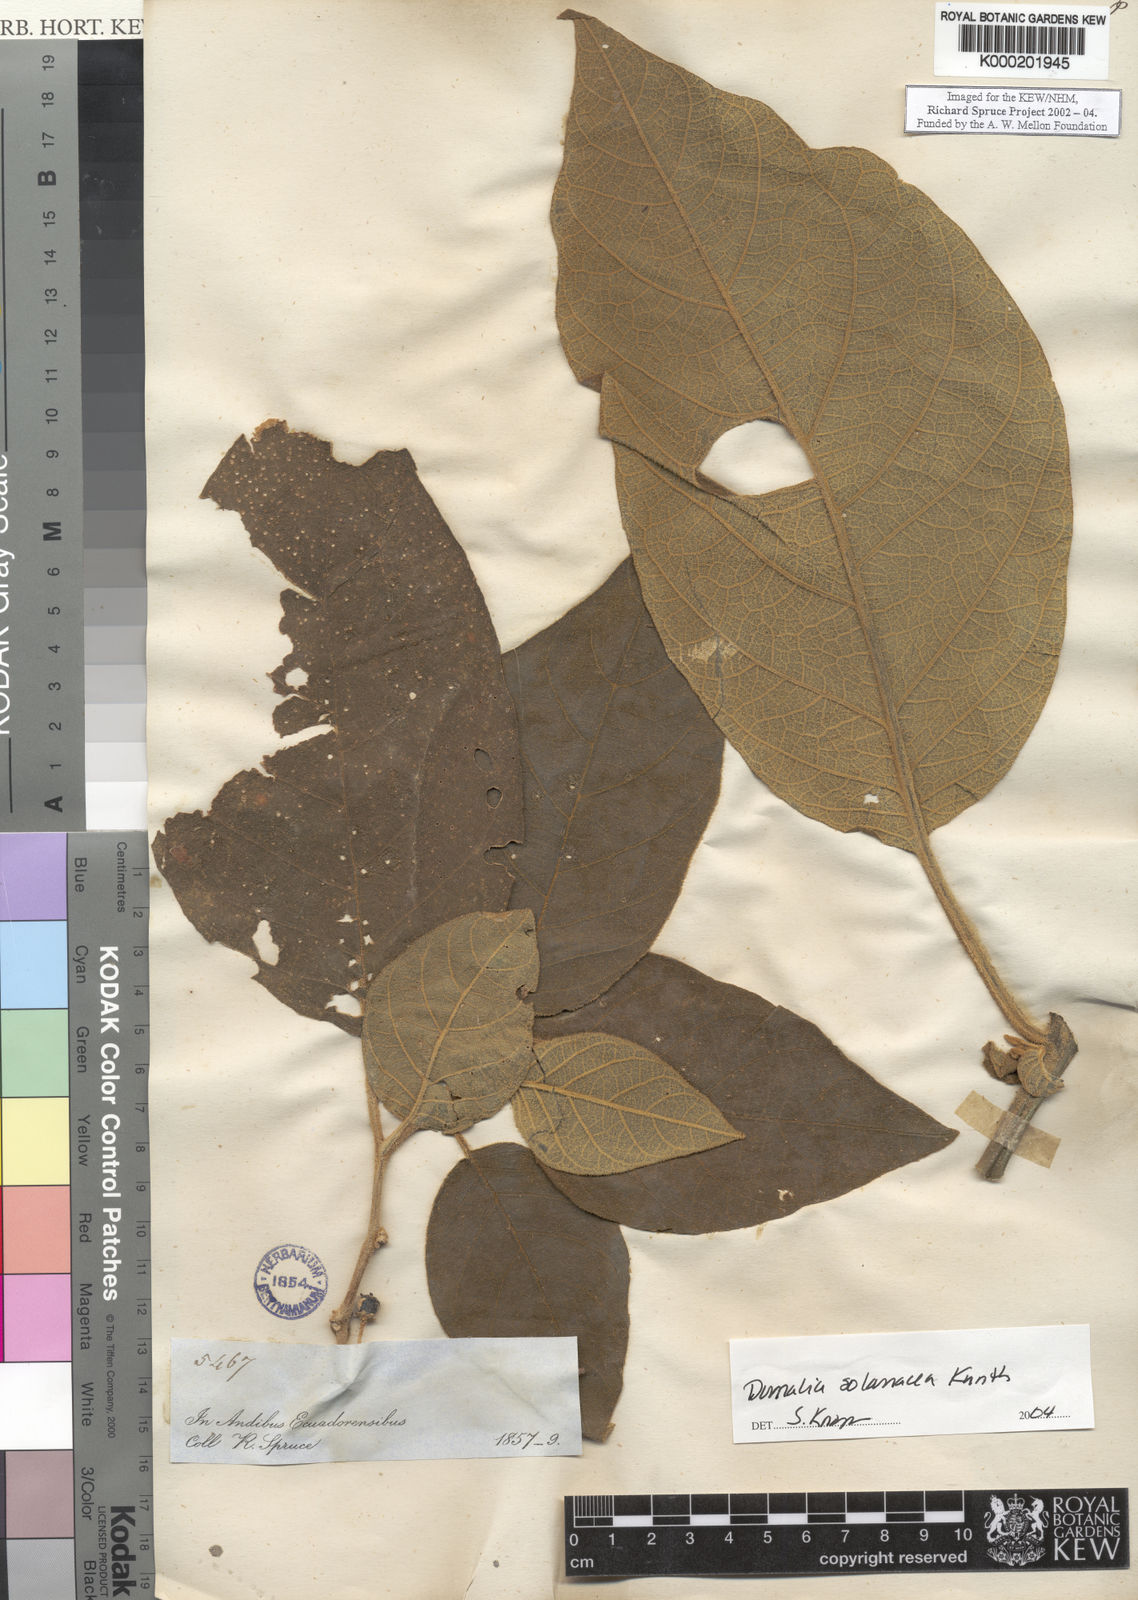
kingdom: Plantae
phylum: Tracheophyta
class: Magnoliopsida
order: Solanales
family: Solanaceae
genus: Saracha
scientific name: Saracha nigribaccata
